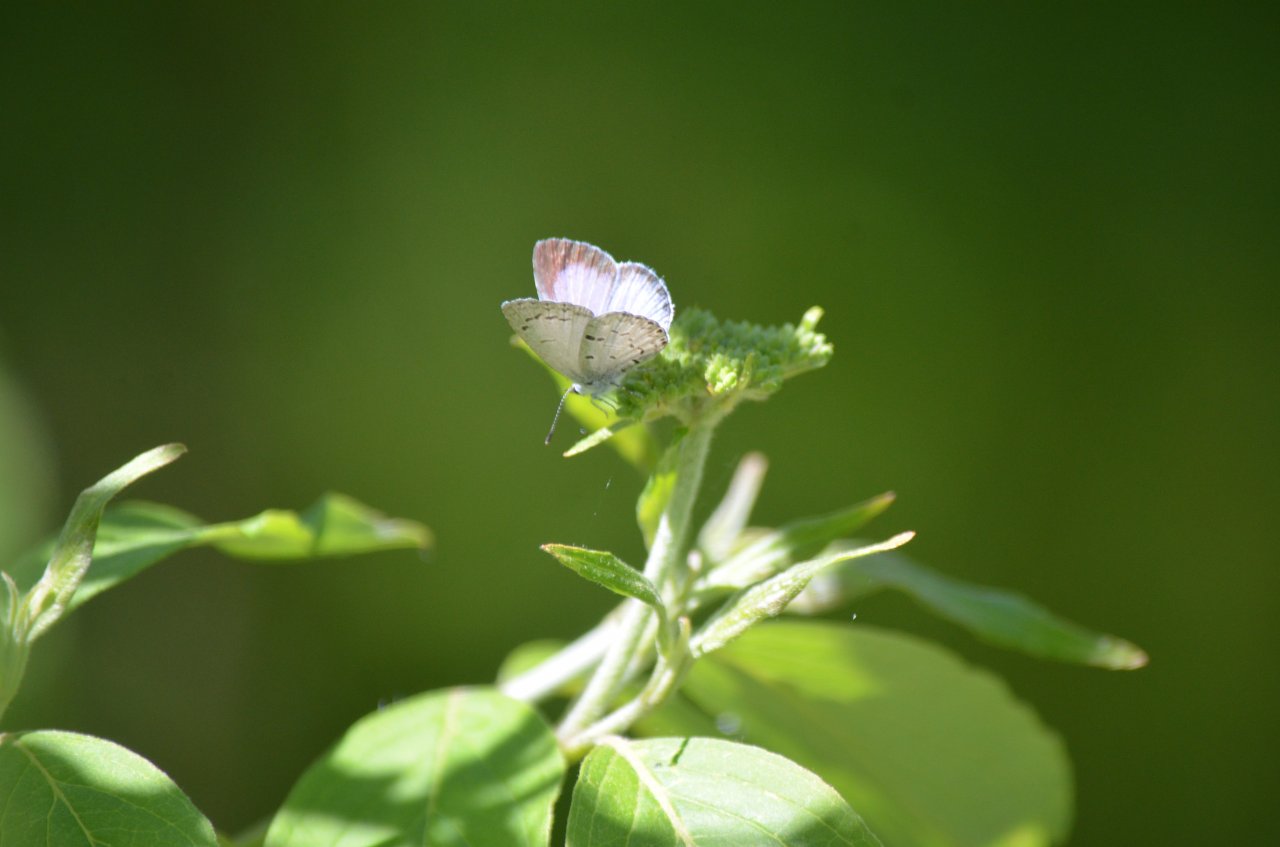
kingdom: Animalia
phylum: Arthropoda
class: Insecta
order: Lepidoptera
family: Lycaenidae
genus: Celastrina
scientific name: Celastrina
